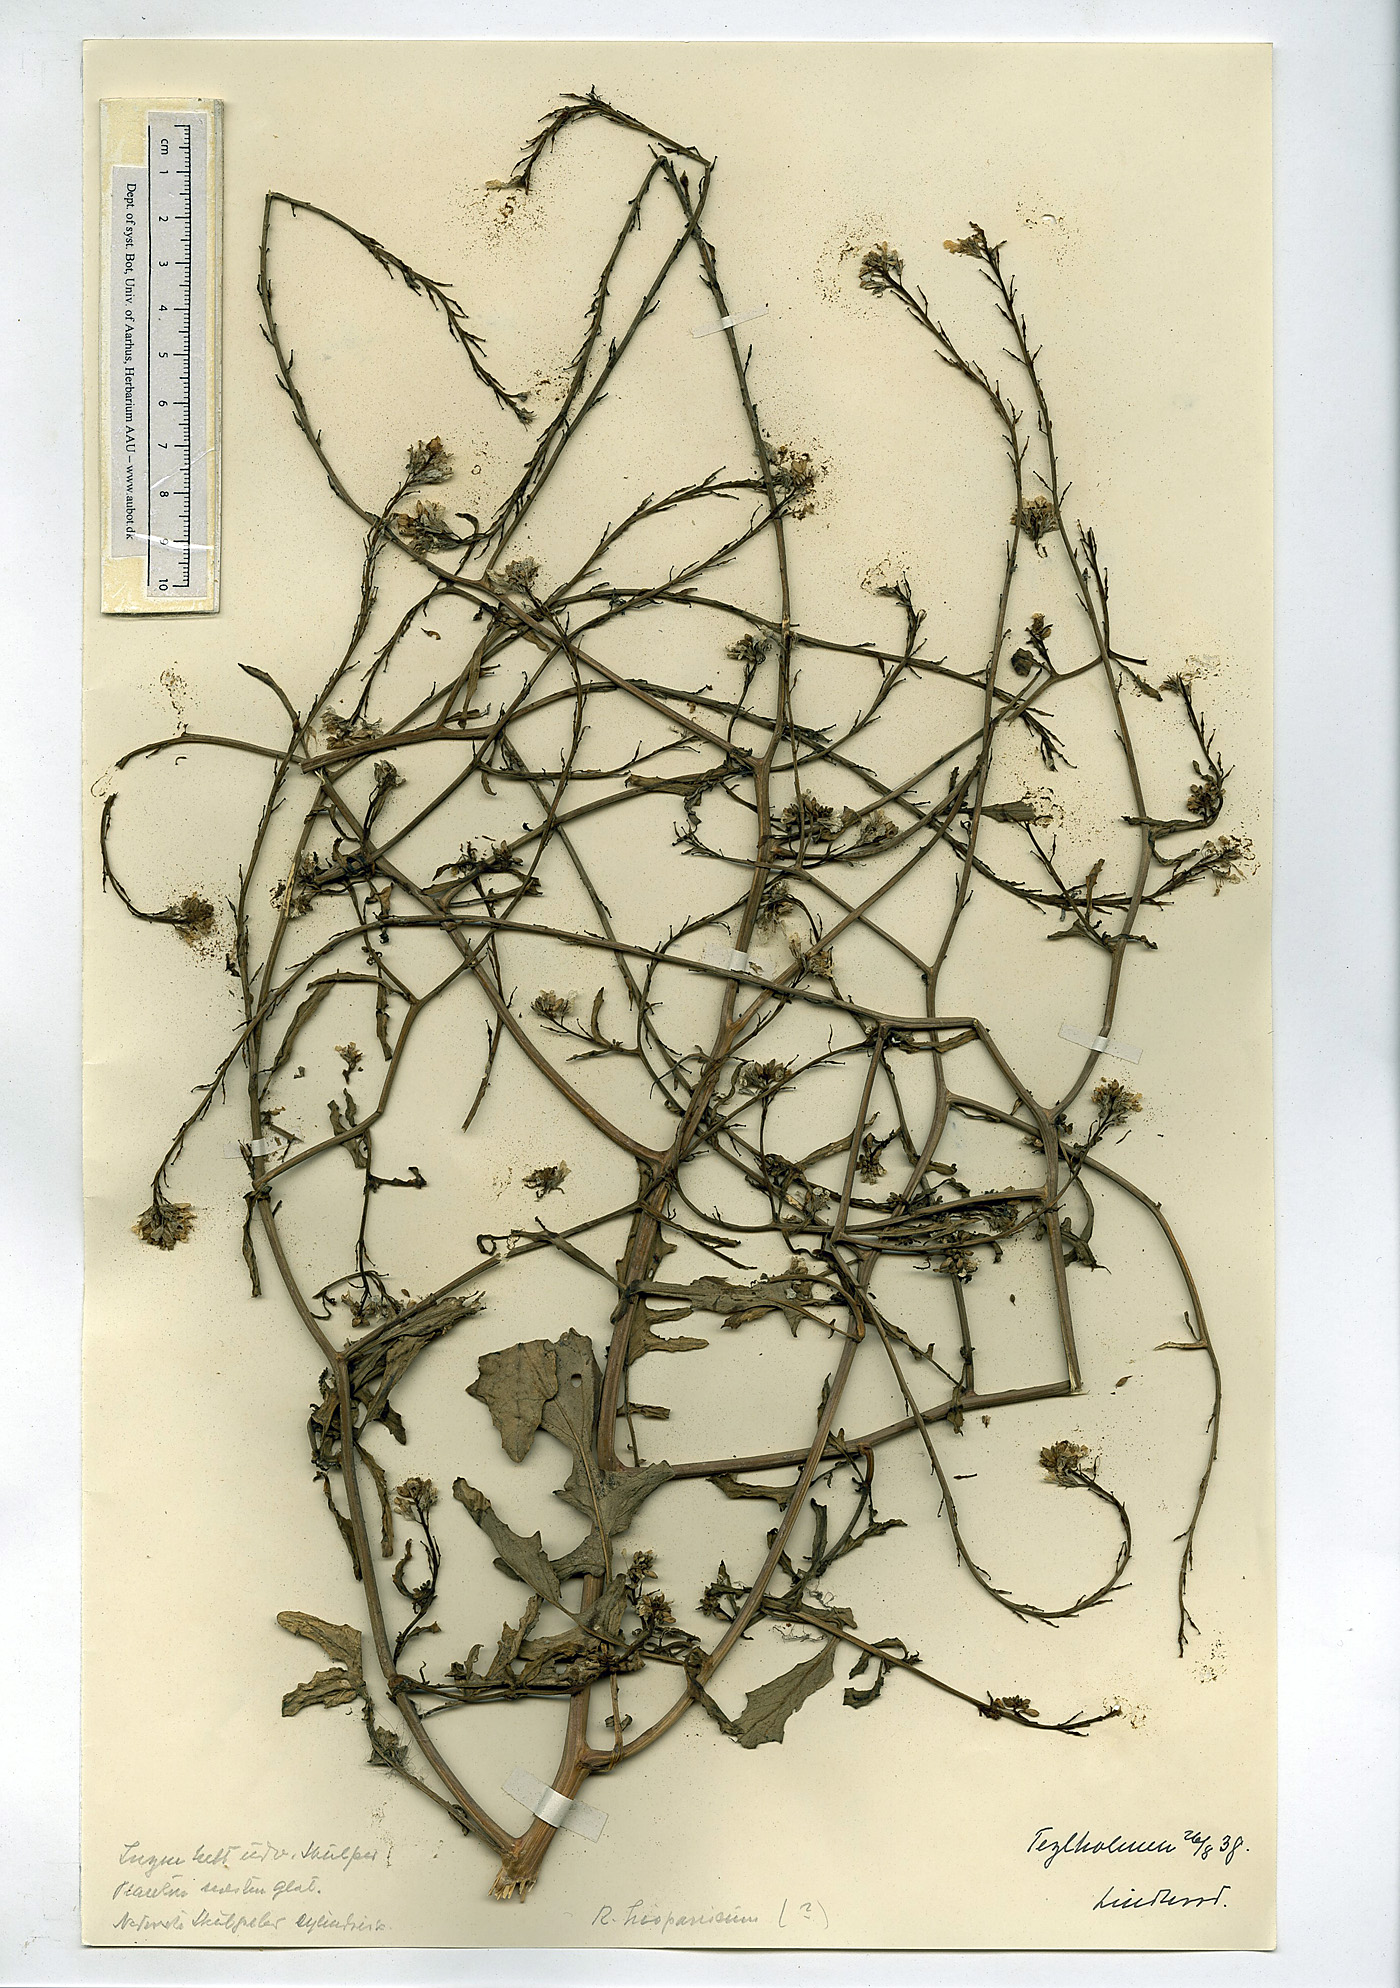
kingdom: Plantae
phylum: Tracheophyta
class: Magnoliopsida
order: Brassicales
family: Brassicaceae
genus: Rapistrum
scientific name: Rapistrum rugosum
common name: Annual bastardcabbage
